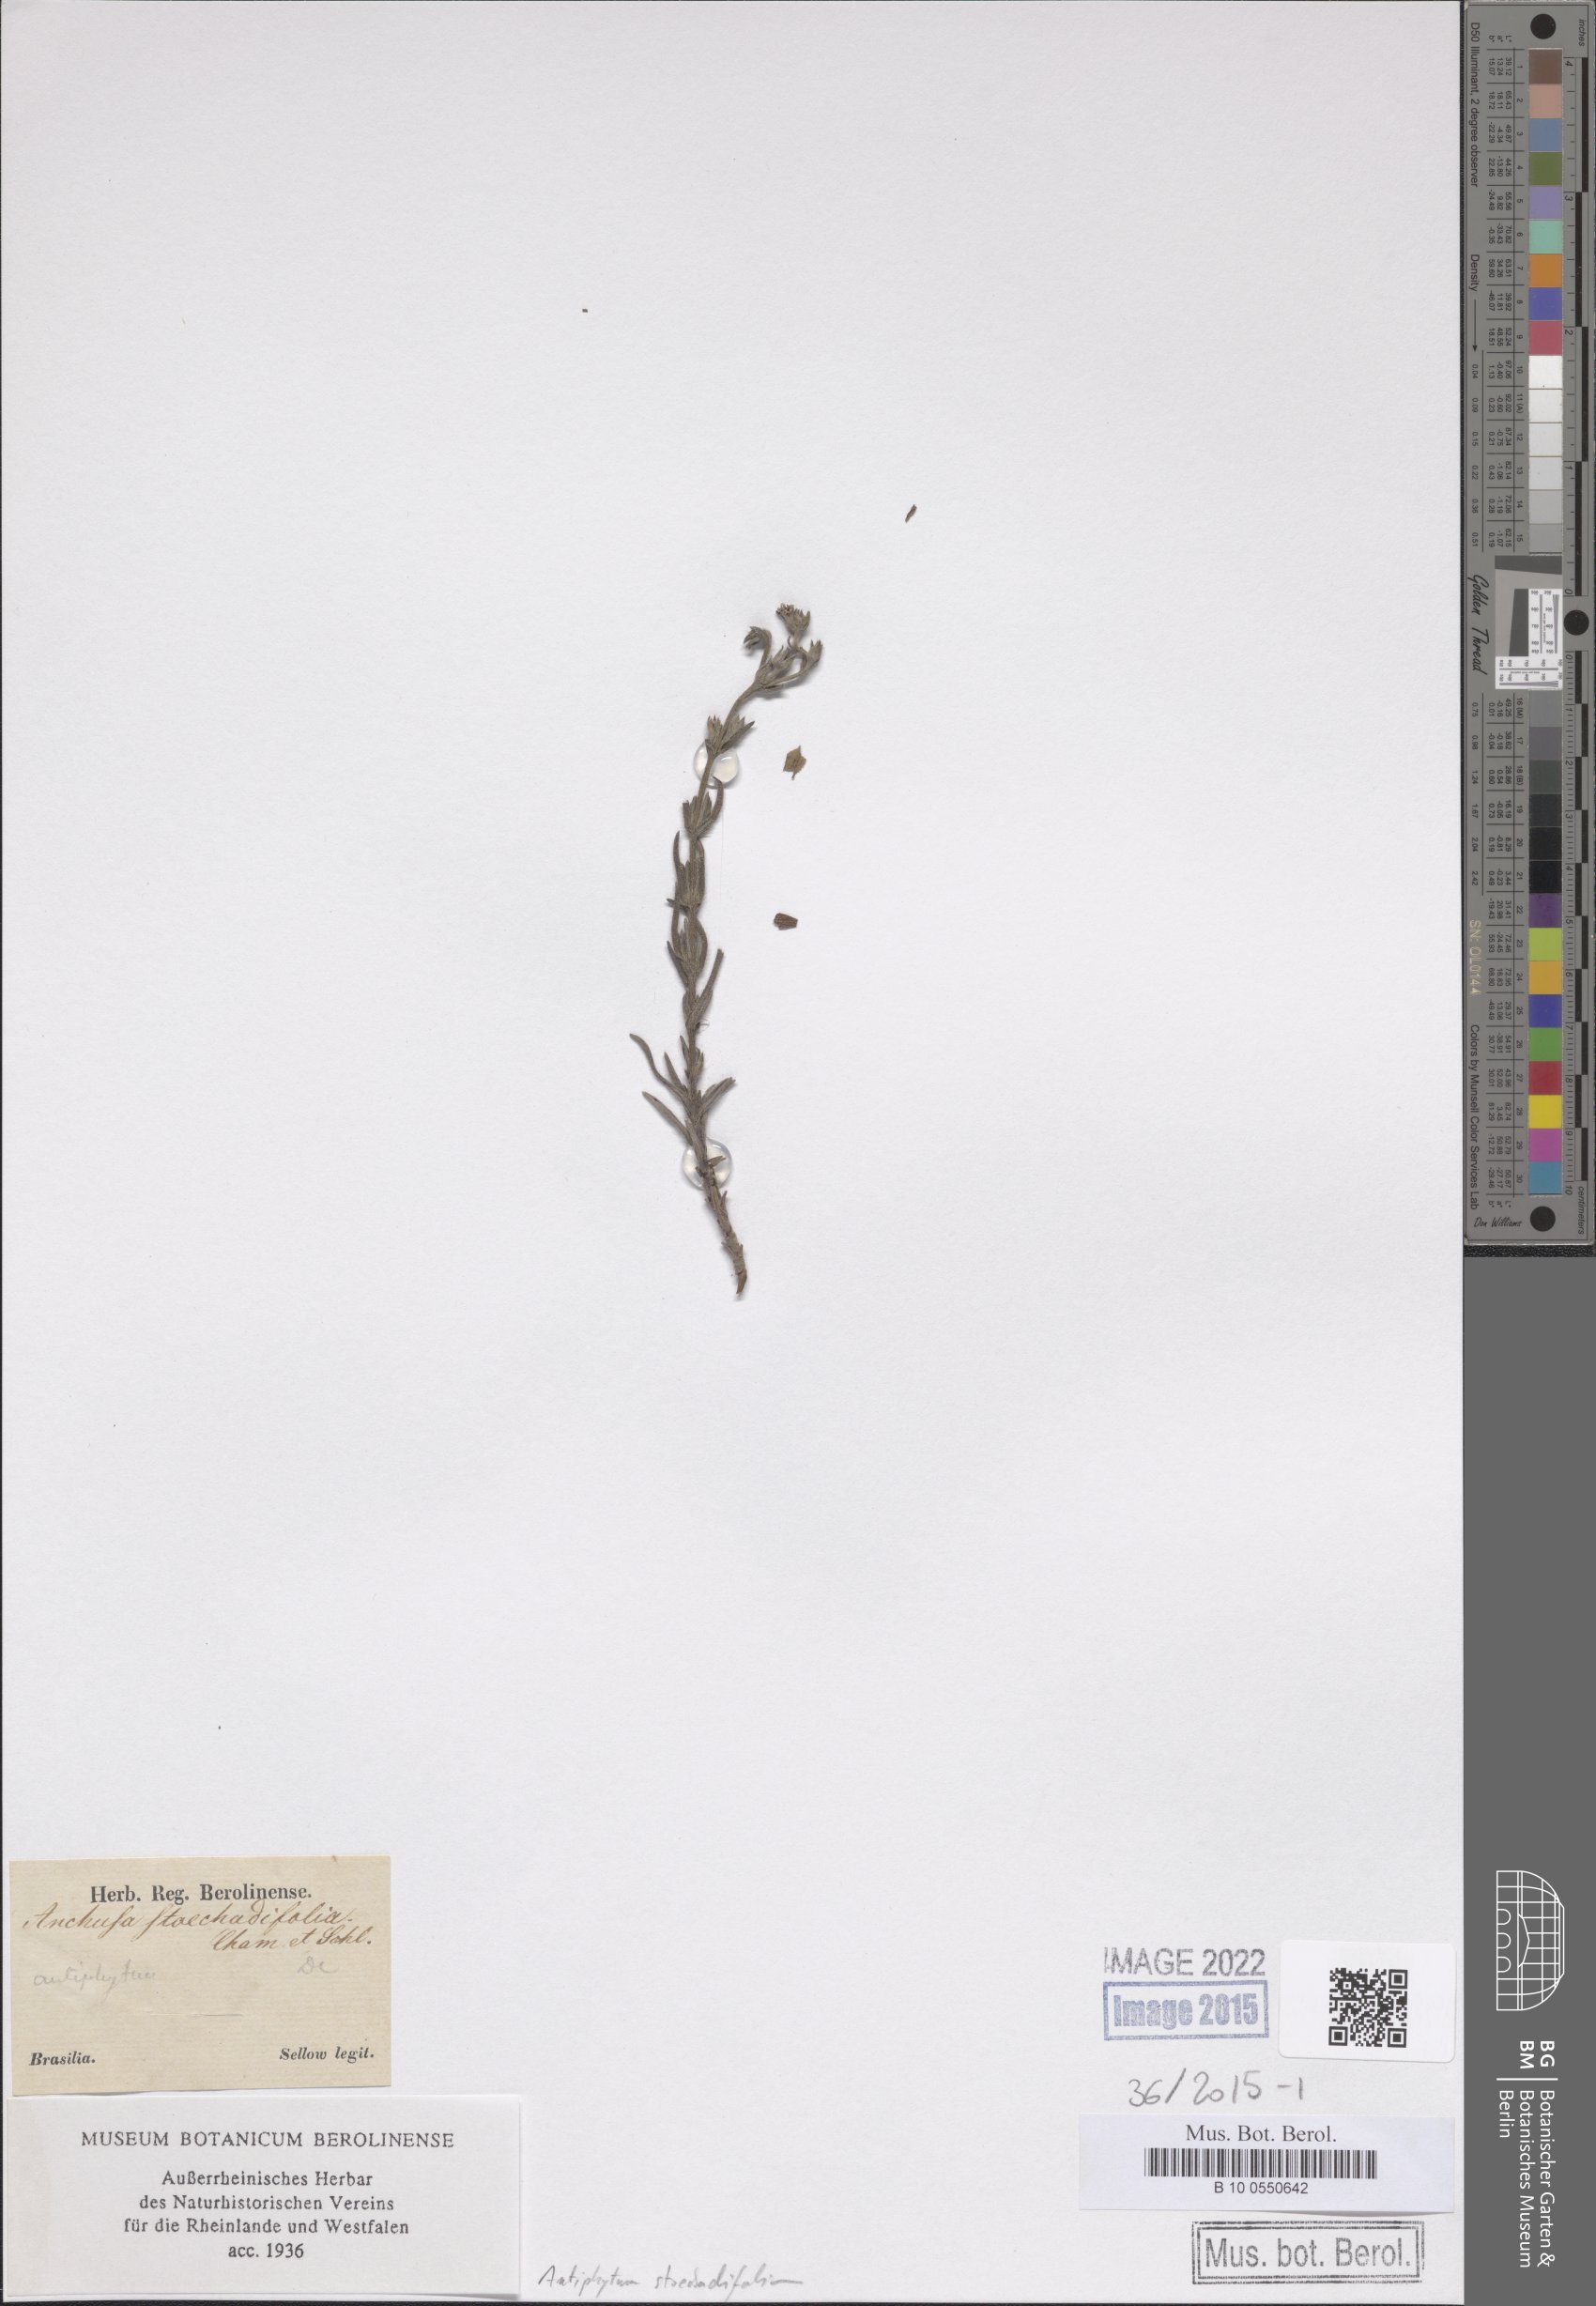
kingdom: Plantae
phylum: Tracheophyta
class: Magnoliopsida
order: Boraginales
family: Boraginaceae
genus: Antiphytum
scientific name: Antiphytum stoechadifolium
